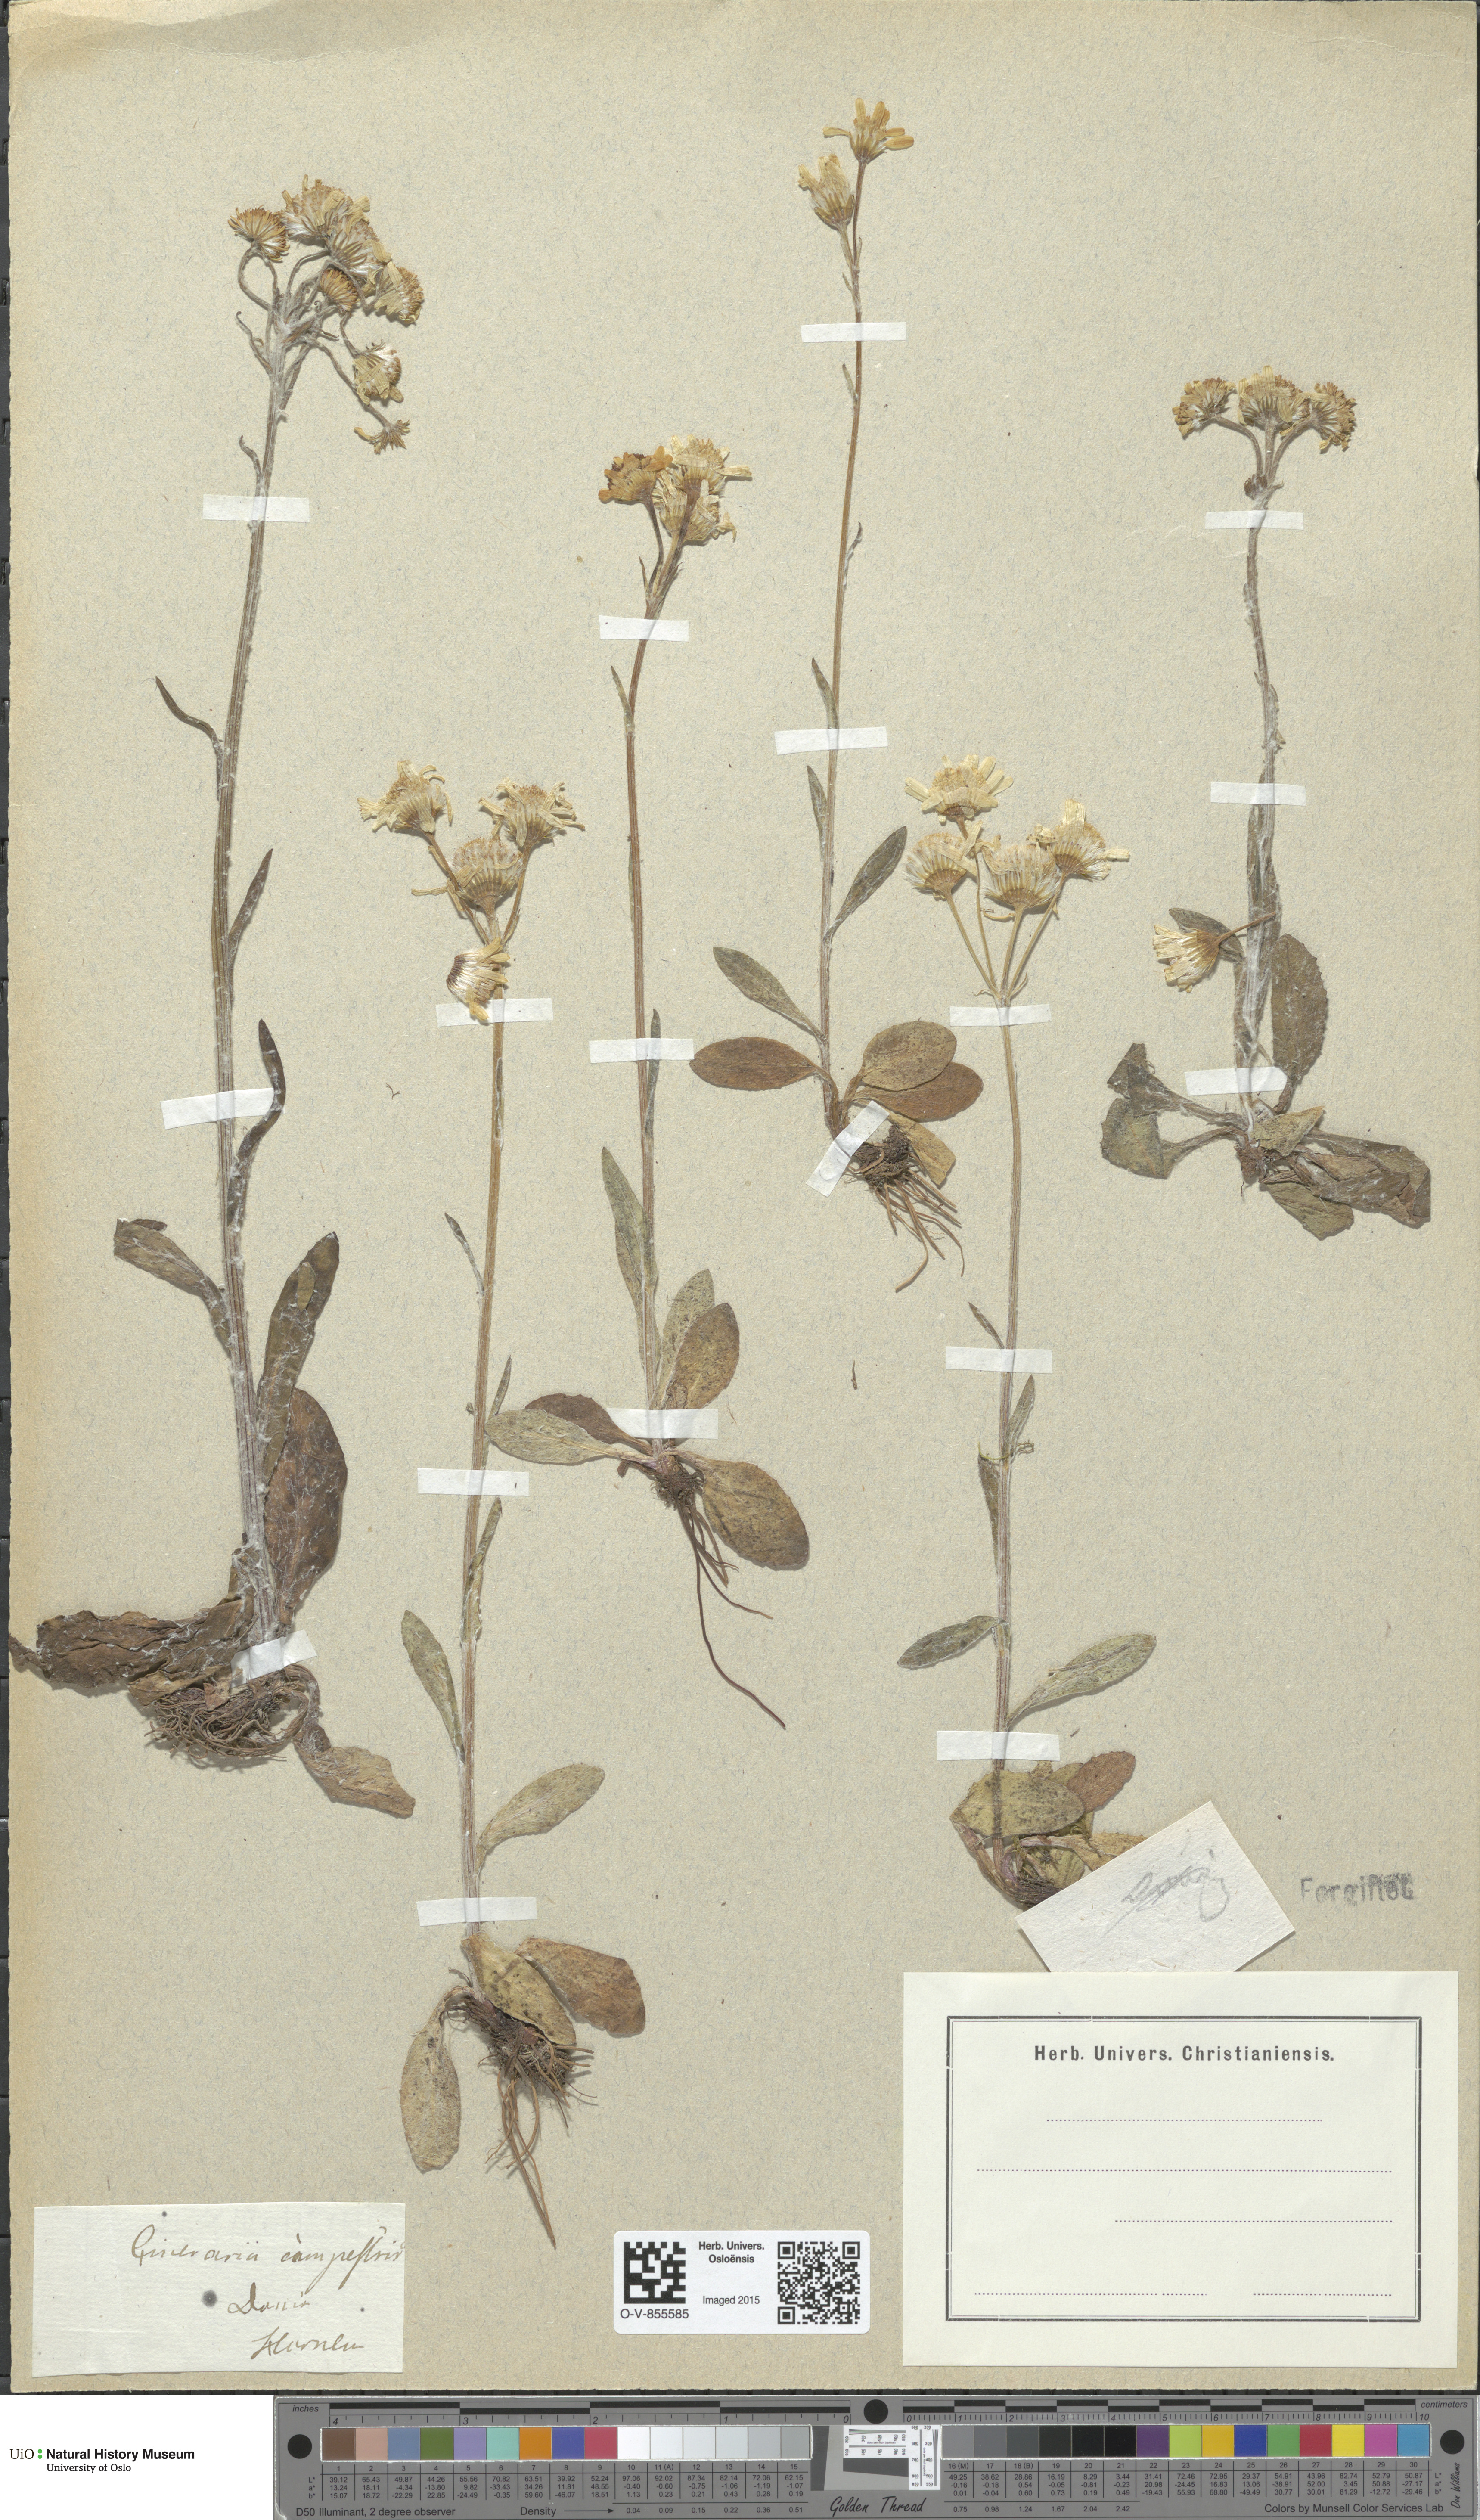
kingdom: Plantae
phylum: Tracheophyta
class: Magnoliopsida
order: Asterales
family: Asteraceae
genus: Tephroseris
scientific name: Tephroseris integrifolia
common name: Field fleawort
